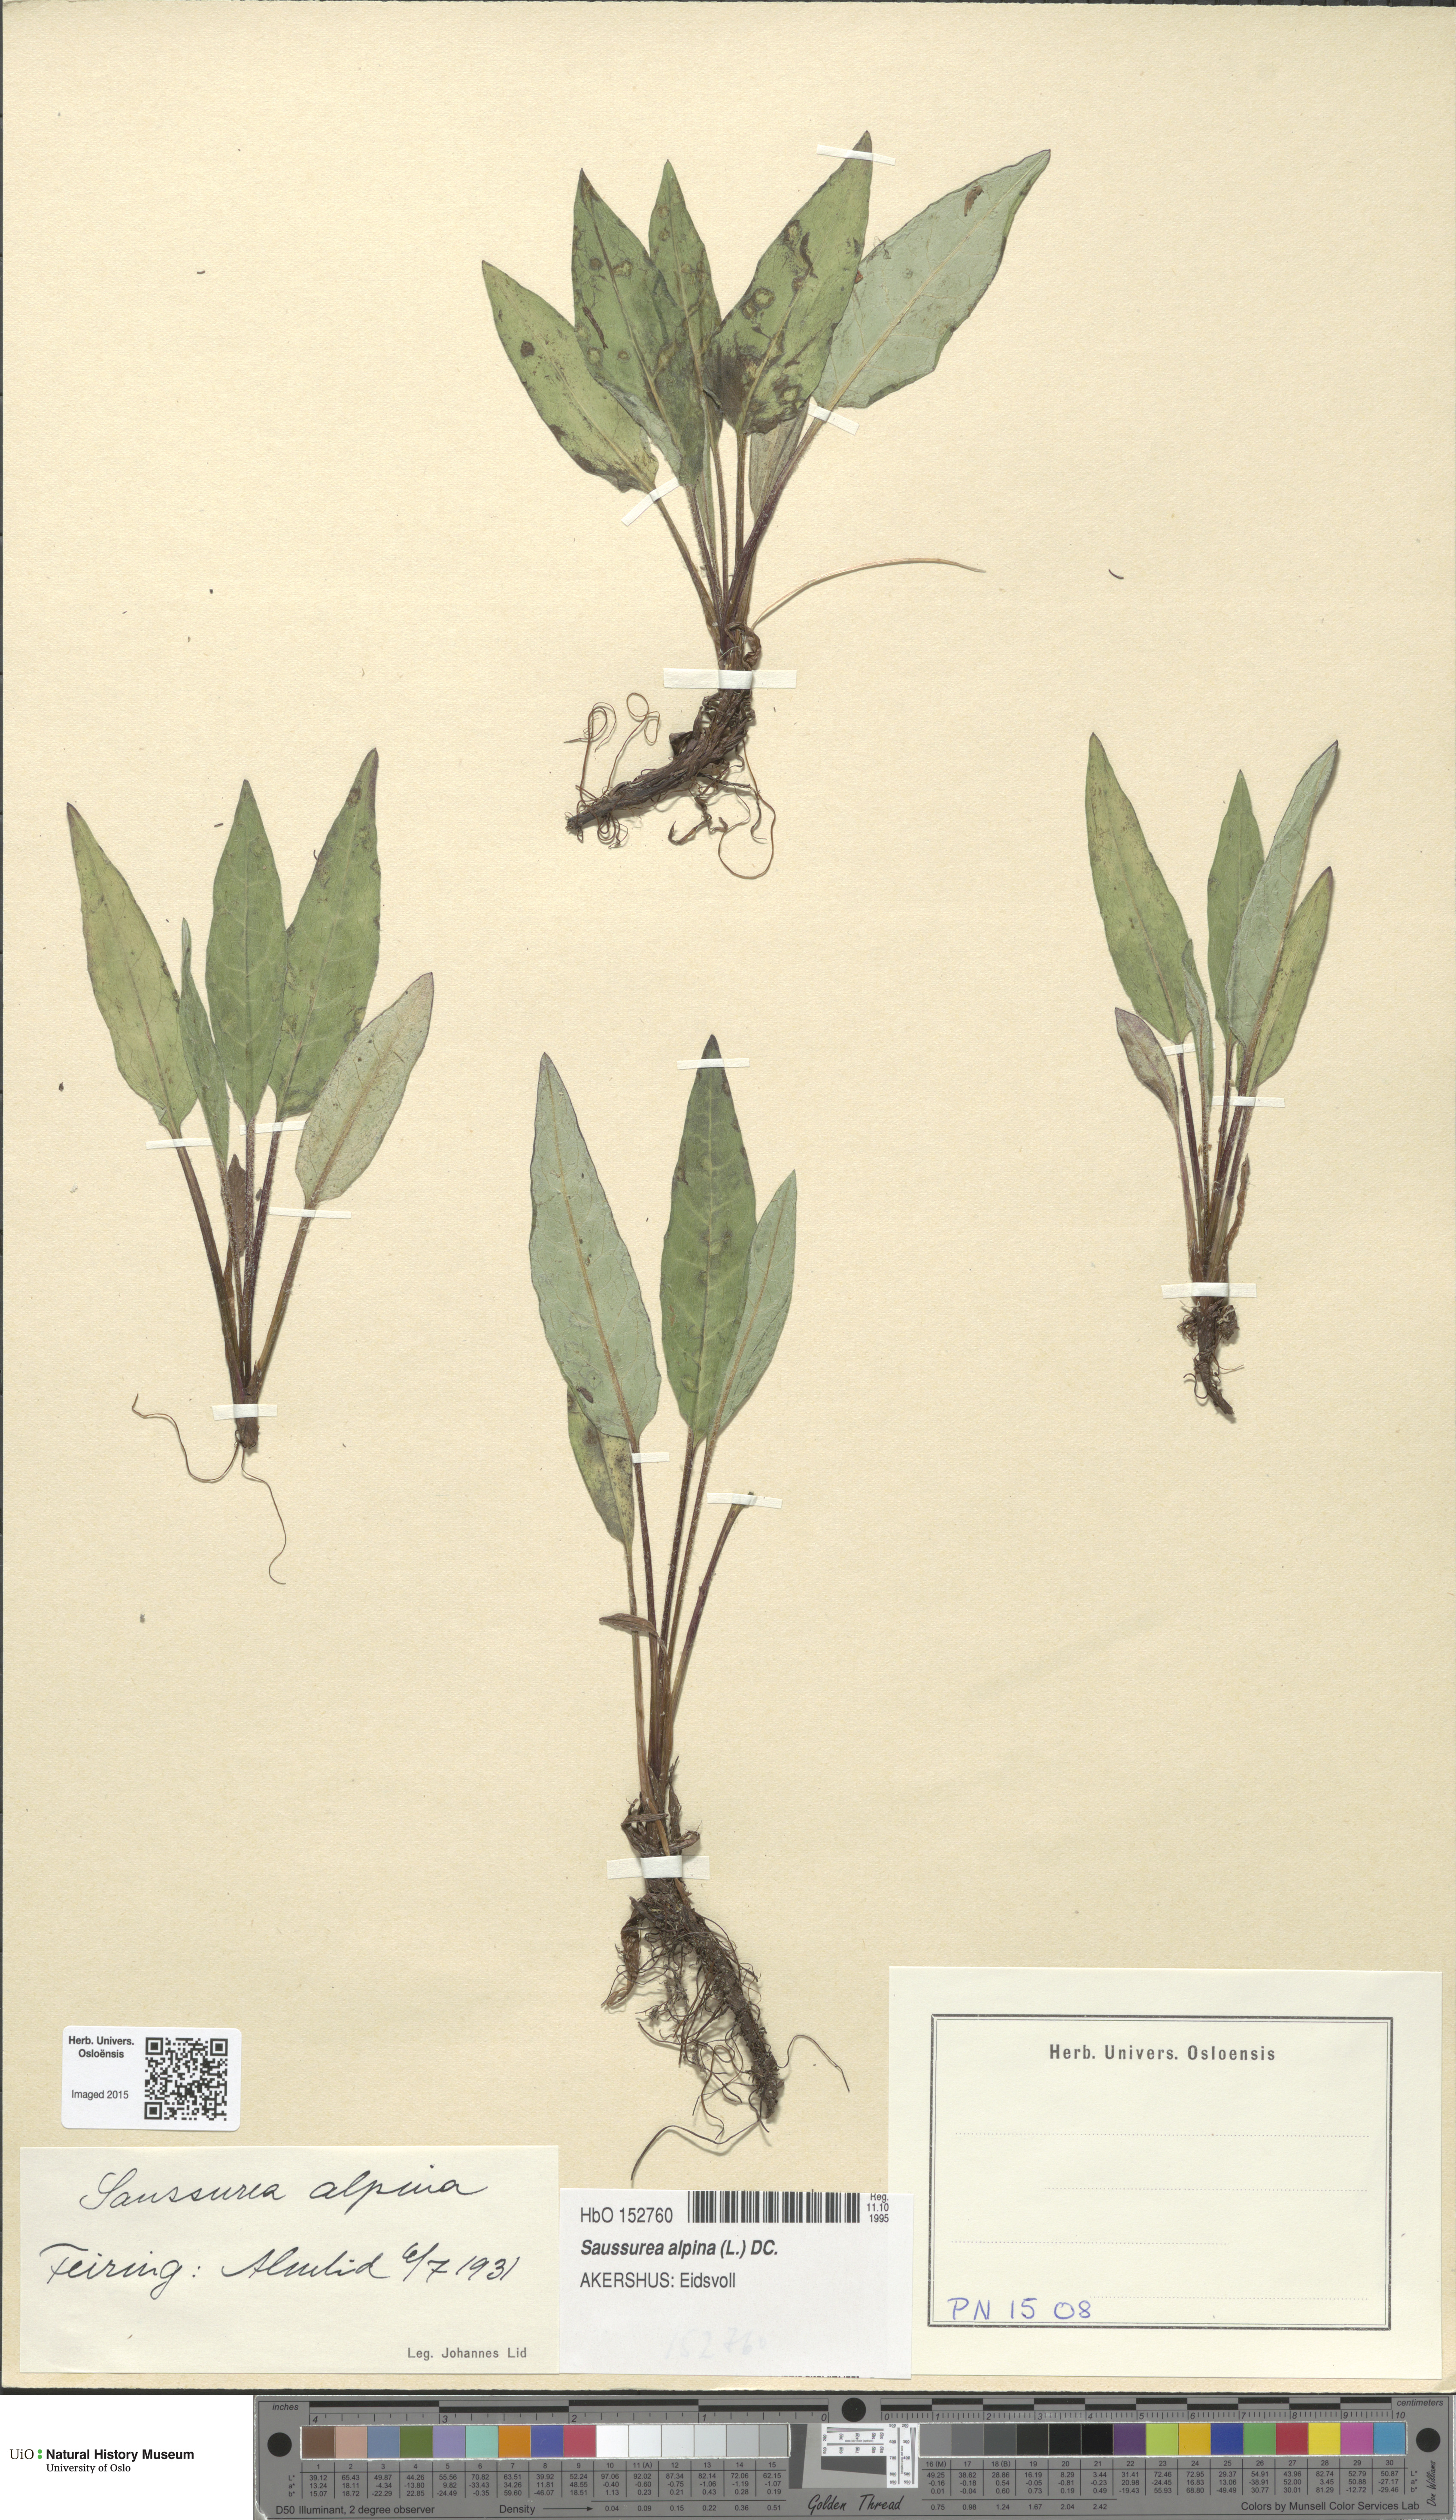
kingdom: Plantae
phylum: Tracheophyta
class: Magnoliopsida
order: Asterales
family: Asteraceae
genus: Saussurea
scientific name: Saussurea alpina
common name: Alpine saw-wort
